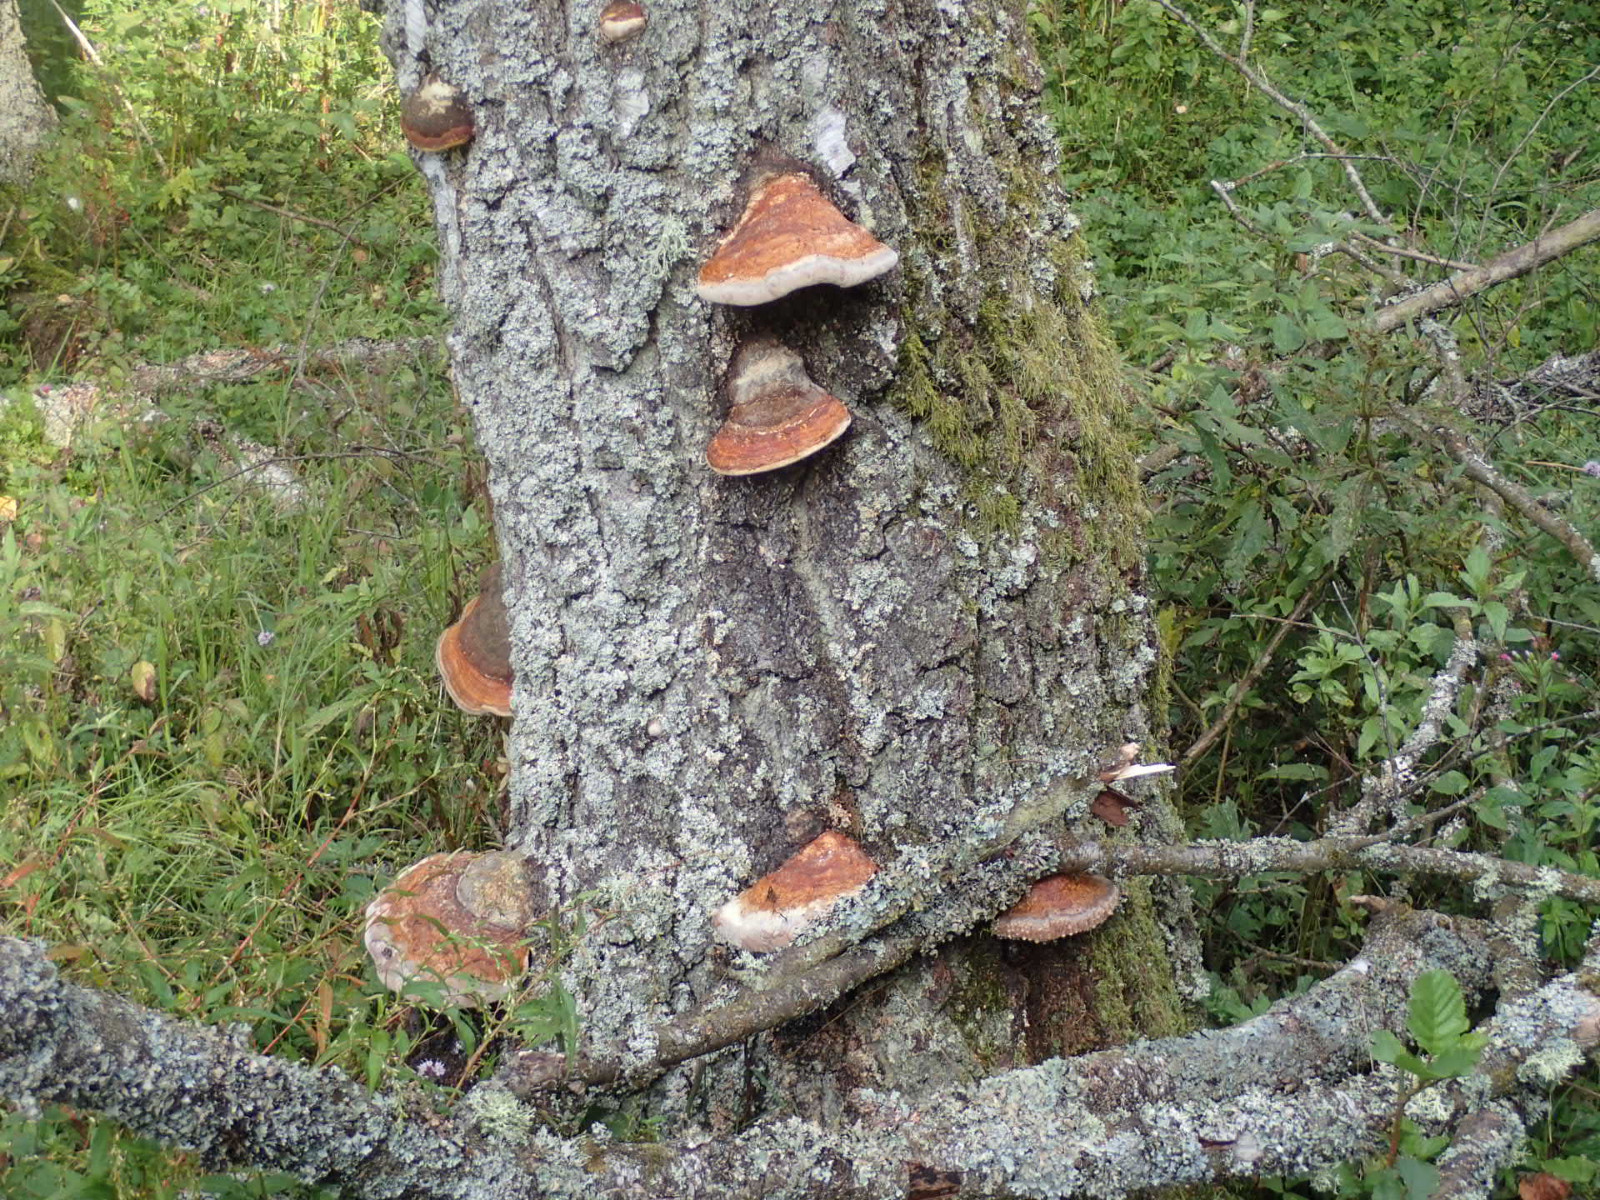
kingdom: Fungi
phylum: Basidiomycota
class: Agaricomycetes
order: Polyporales
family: Fomitopsidaceae
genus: Fomitopsis
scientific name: Fomitopsis pinicola
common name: randbæltet hovporesvamp
